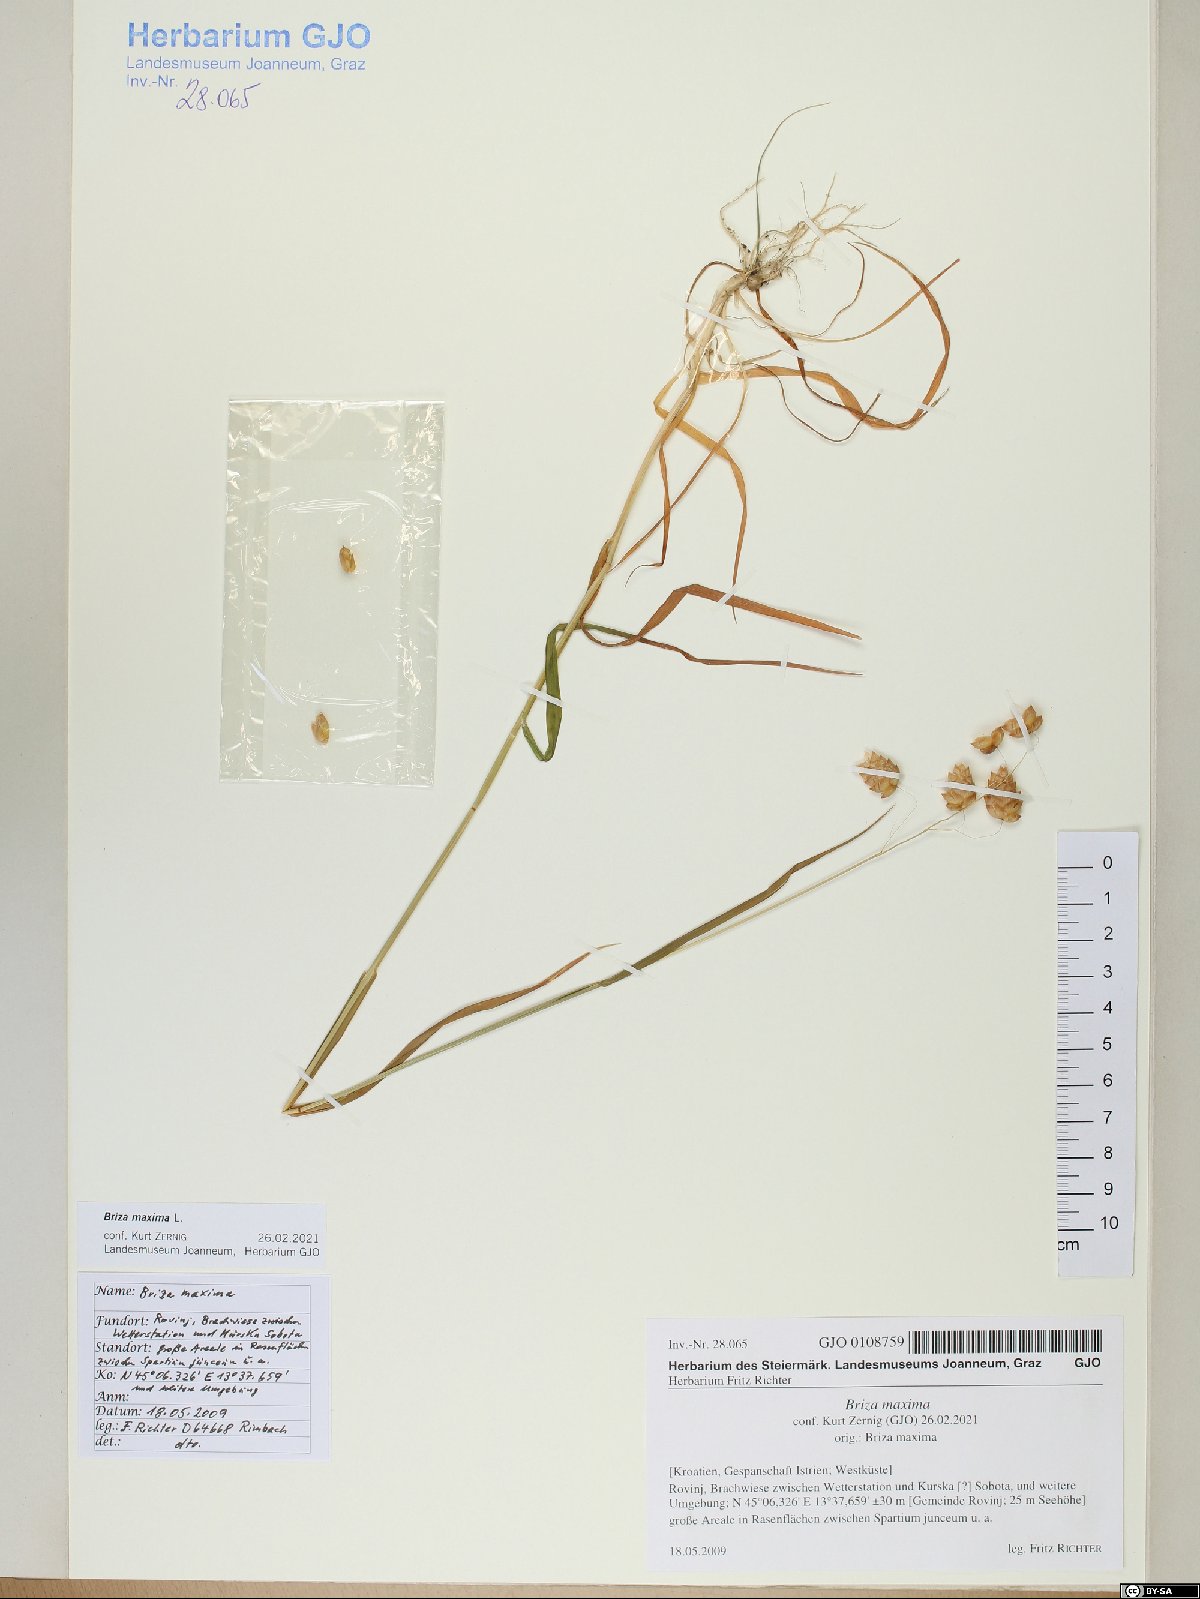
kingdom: Plantae
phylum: Tracheophyta
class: Liliopsida
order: Poales
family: Poaceae
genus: Briza
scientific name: Briza maxima
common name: Big quakinggrass
